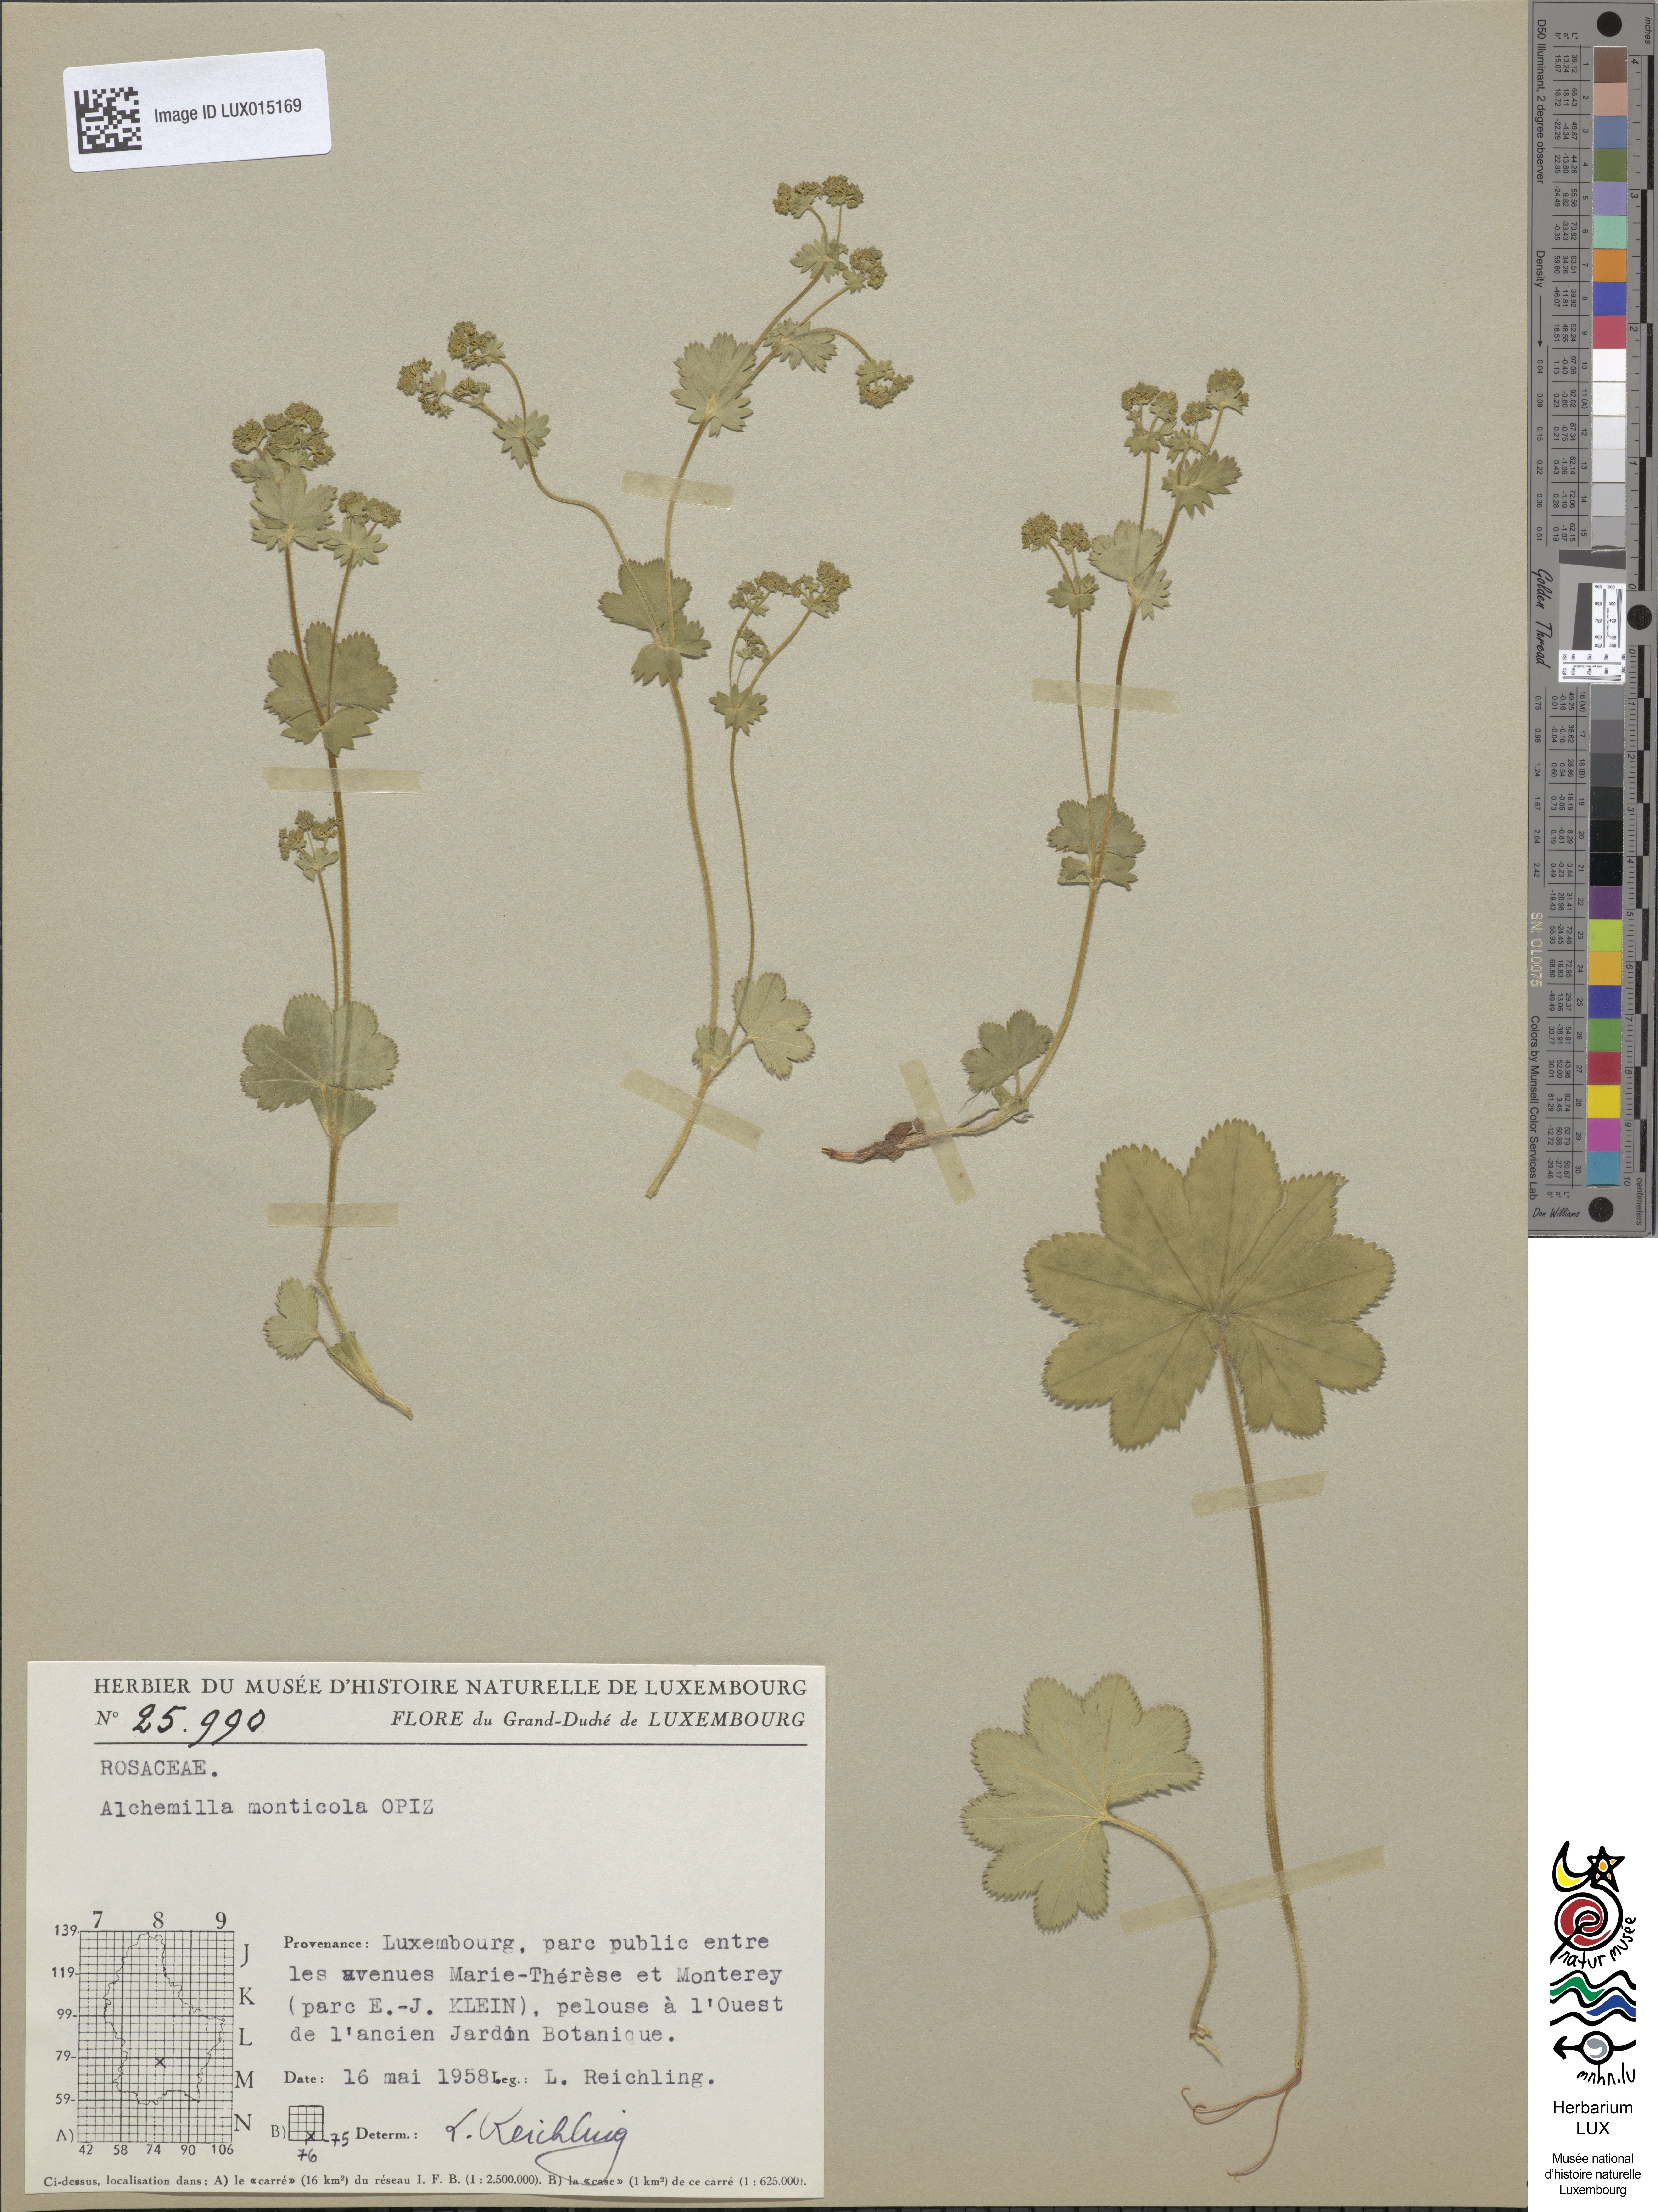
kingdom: Plantae
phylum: Tracheophyta
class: Magnoliopsida
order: Rosales
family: Rosaceae
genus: Alchemilla
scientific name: Alchemilla monticola
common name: Hairy lady's mantle
